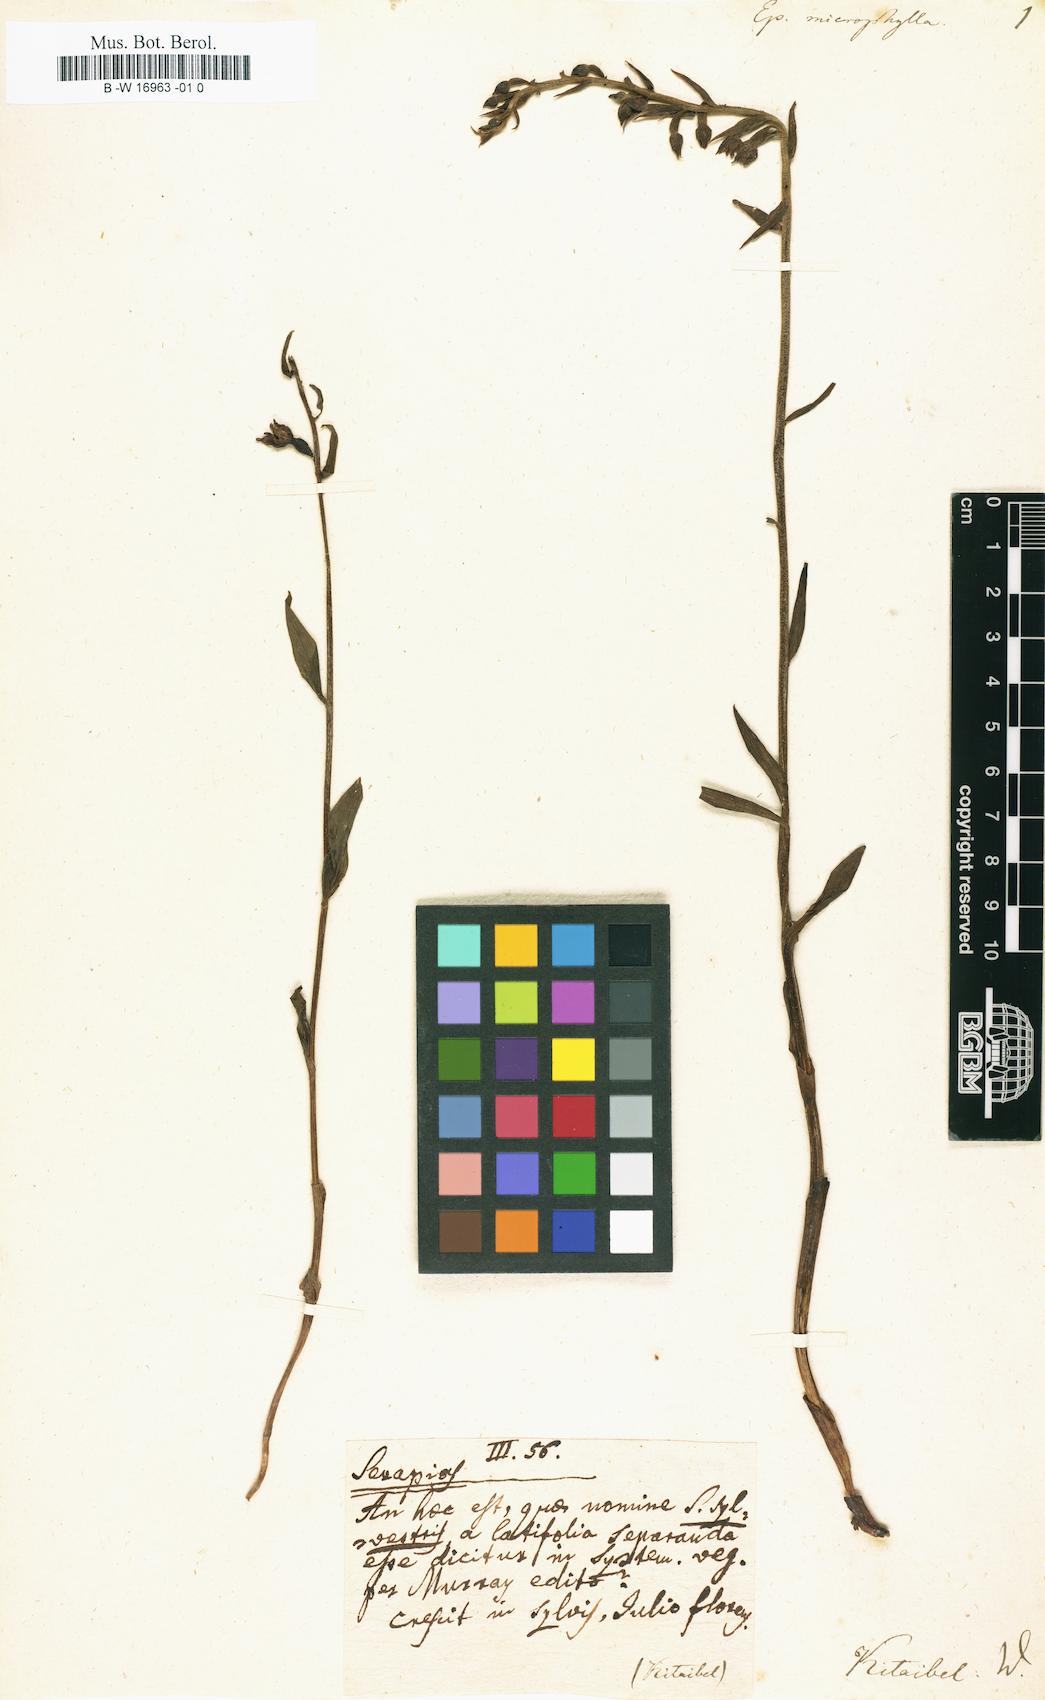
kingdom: Plantae
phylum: Tracheophyta
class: Liliopsida
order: Asparagales
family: Orchidaceae
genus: Epipactis
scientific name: Epipactis microphylla
